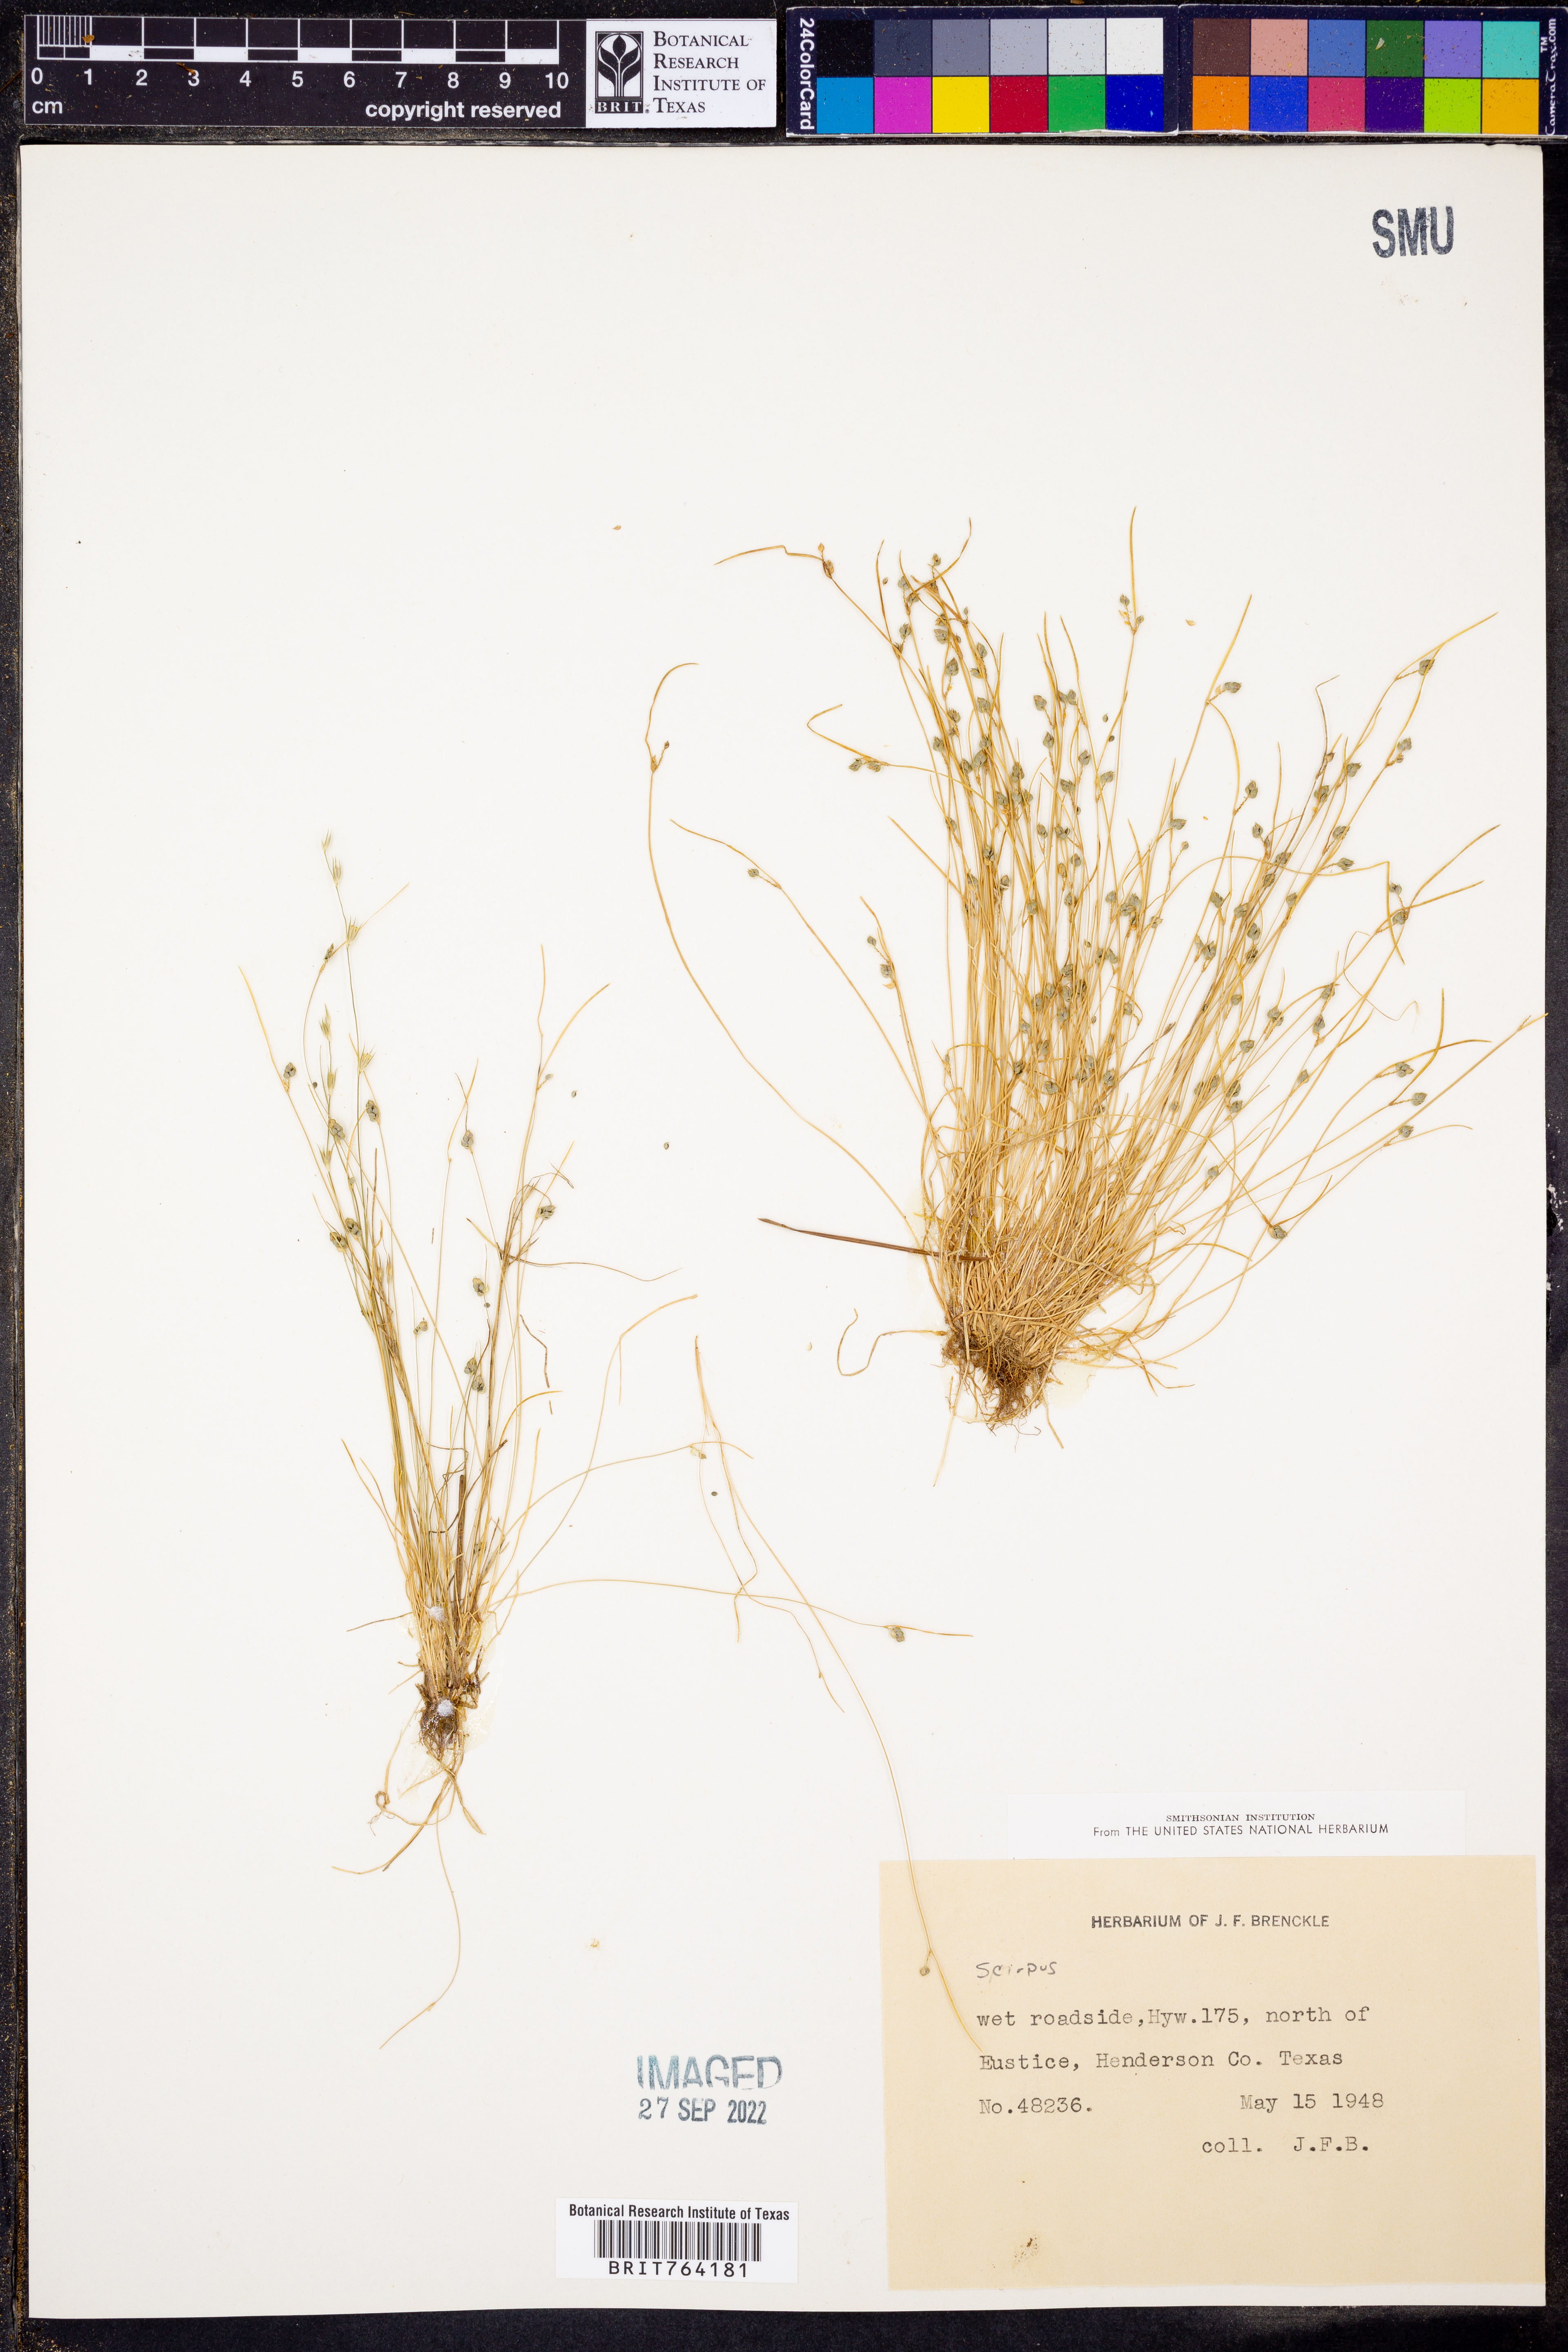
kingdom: Plantae
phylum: Tracheophyta
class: Liliopsida
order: Poales
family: Cyperaceae
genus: Scirpus
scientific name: Scirpus
